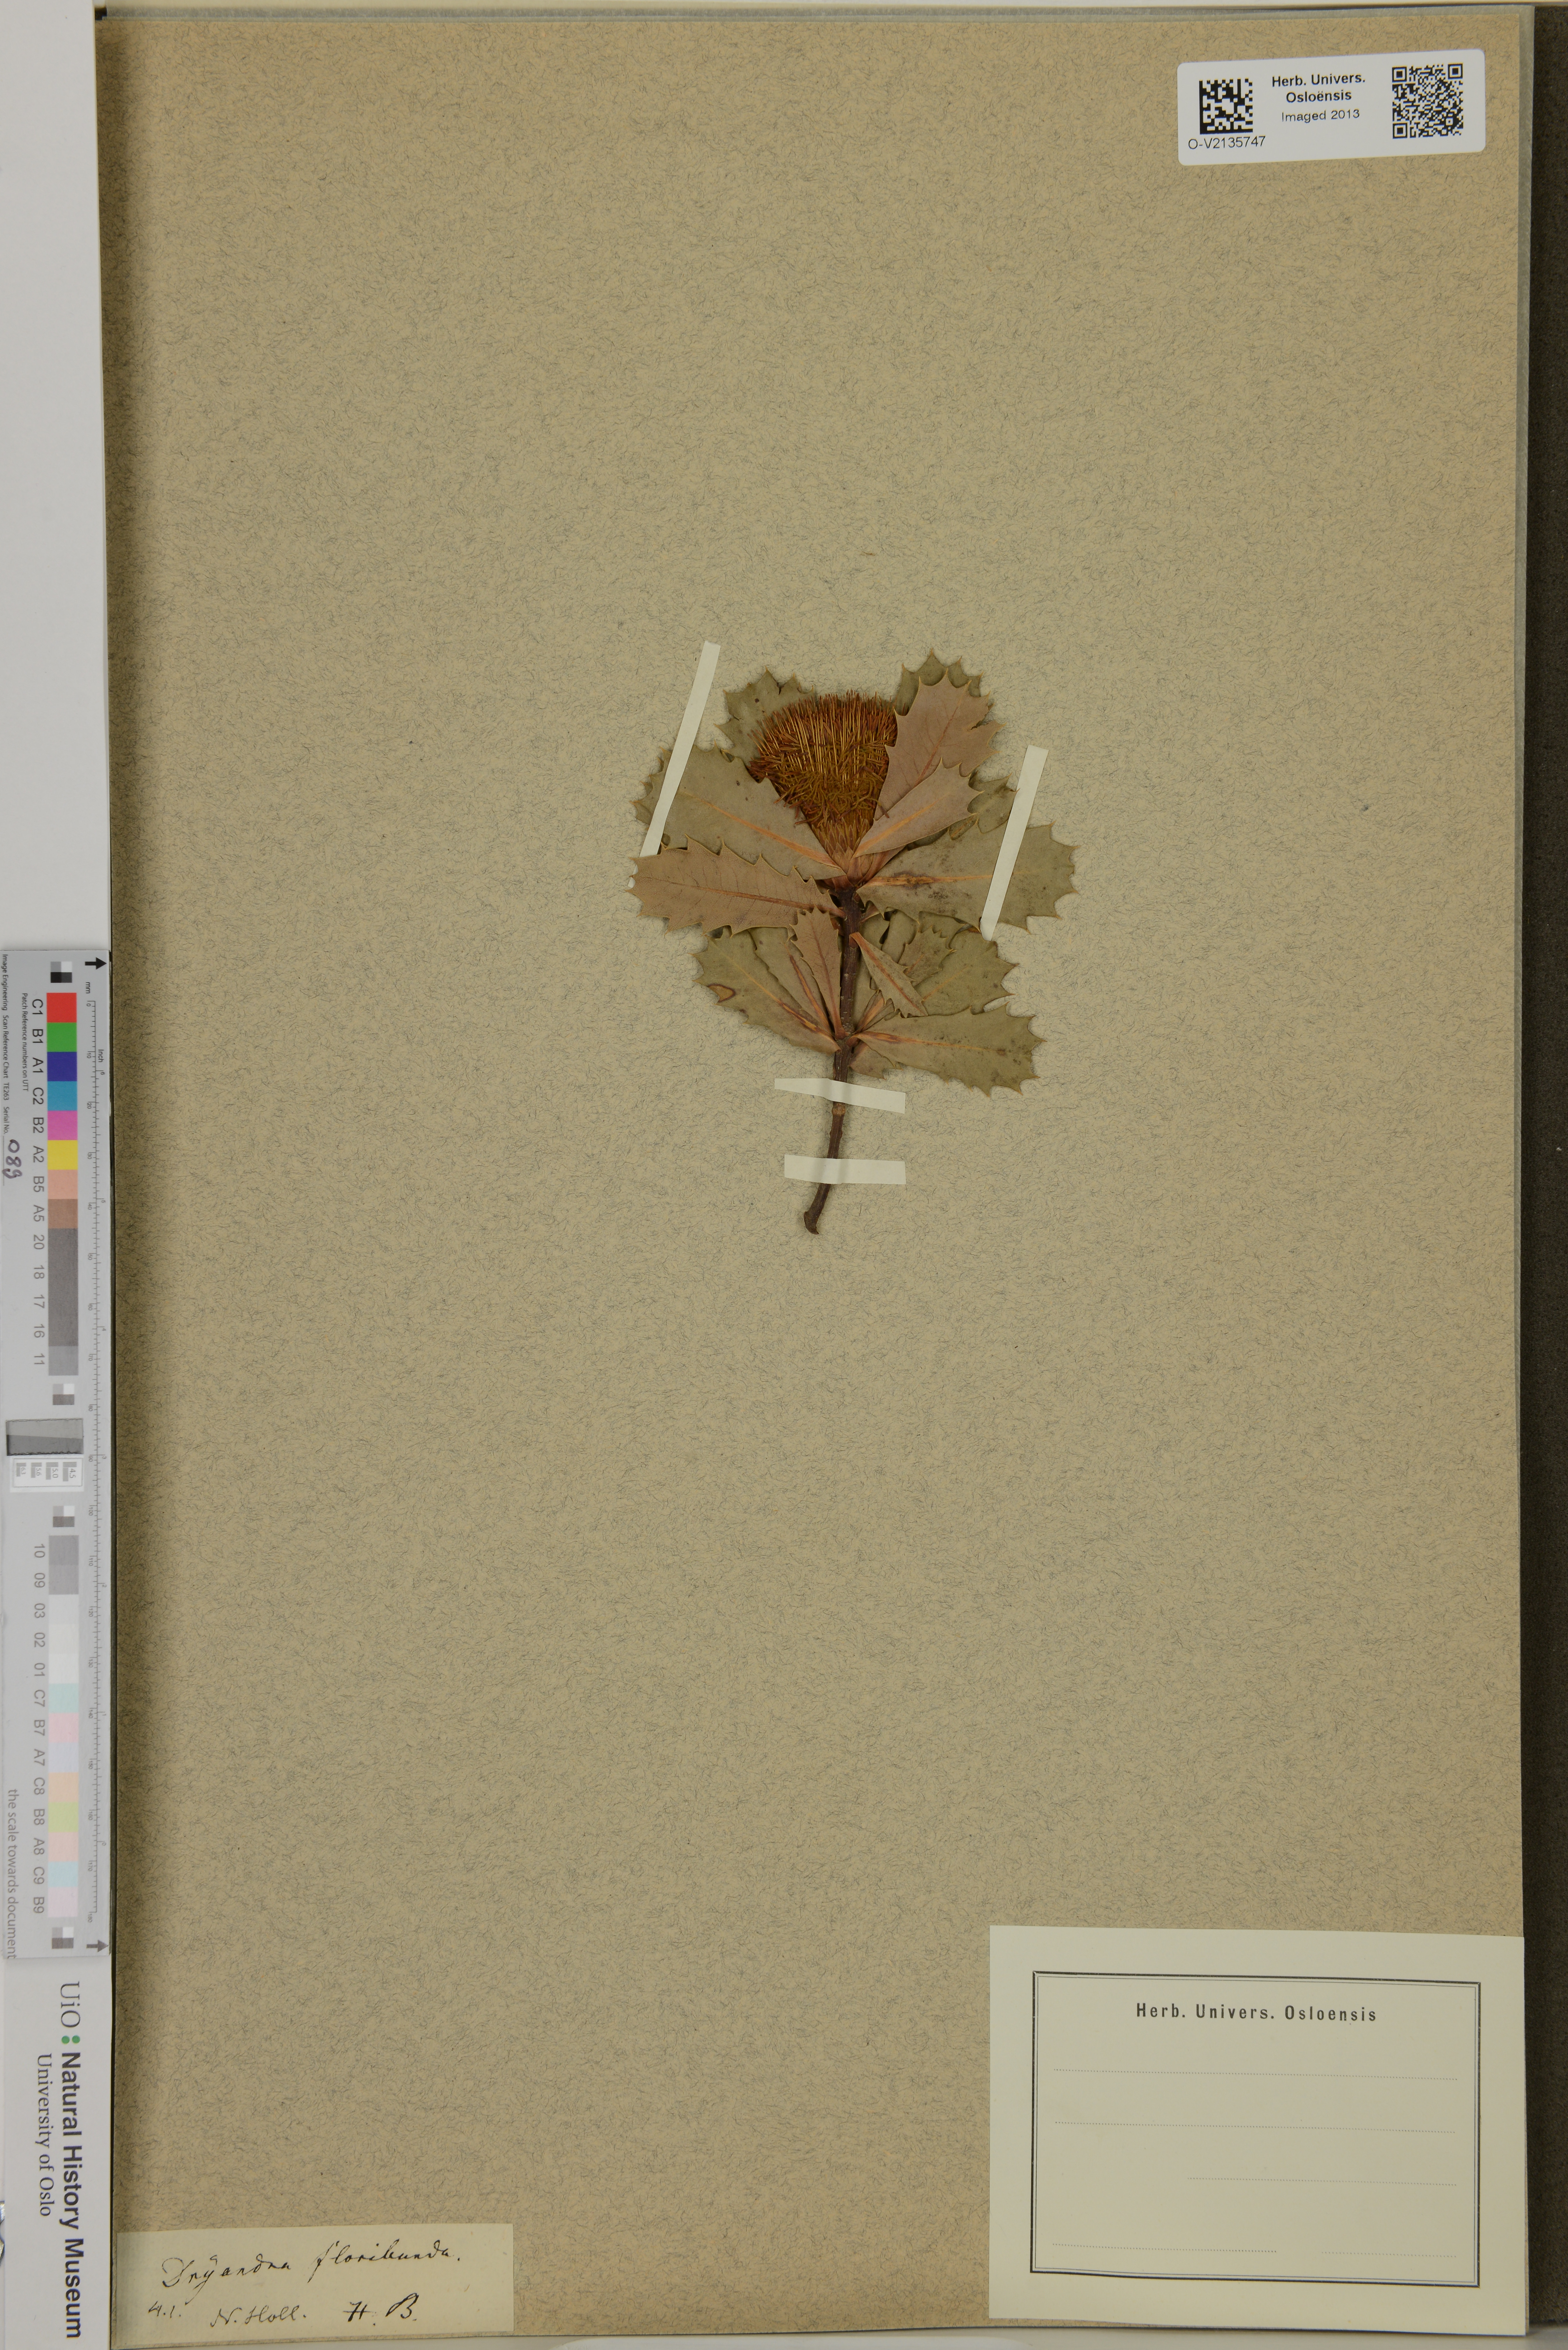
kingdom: Plantae
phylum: Tracheophyta
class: Magnoliopsida
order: Proteales
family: Proteaceae
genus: Banksia
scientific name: Banksia sessilis
